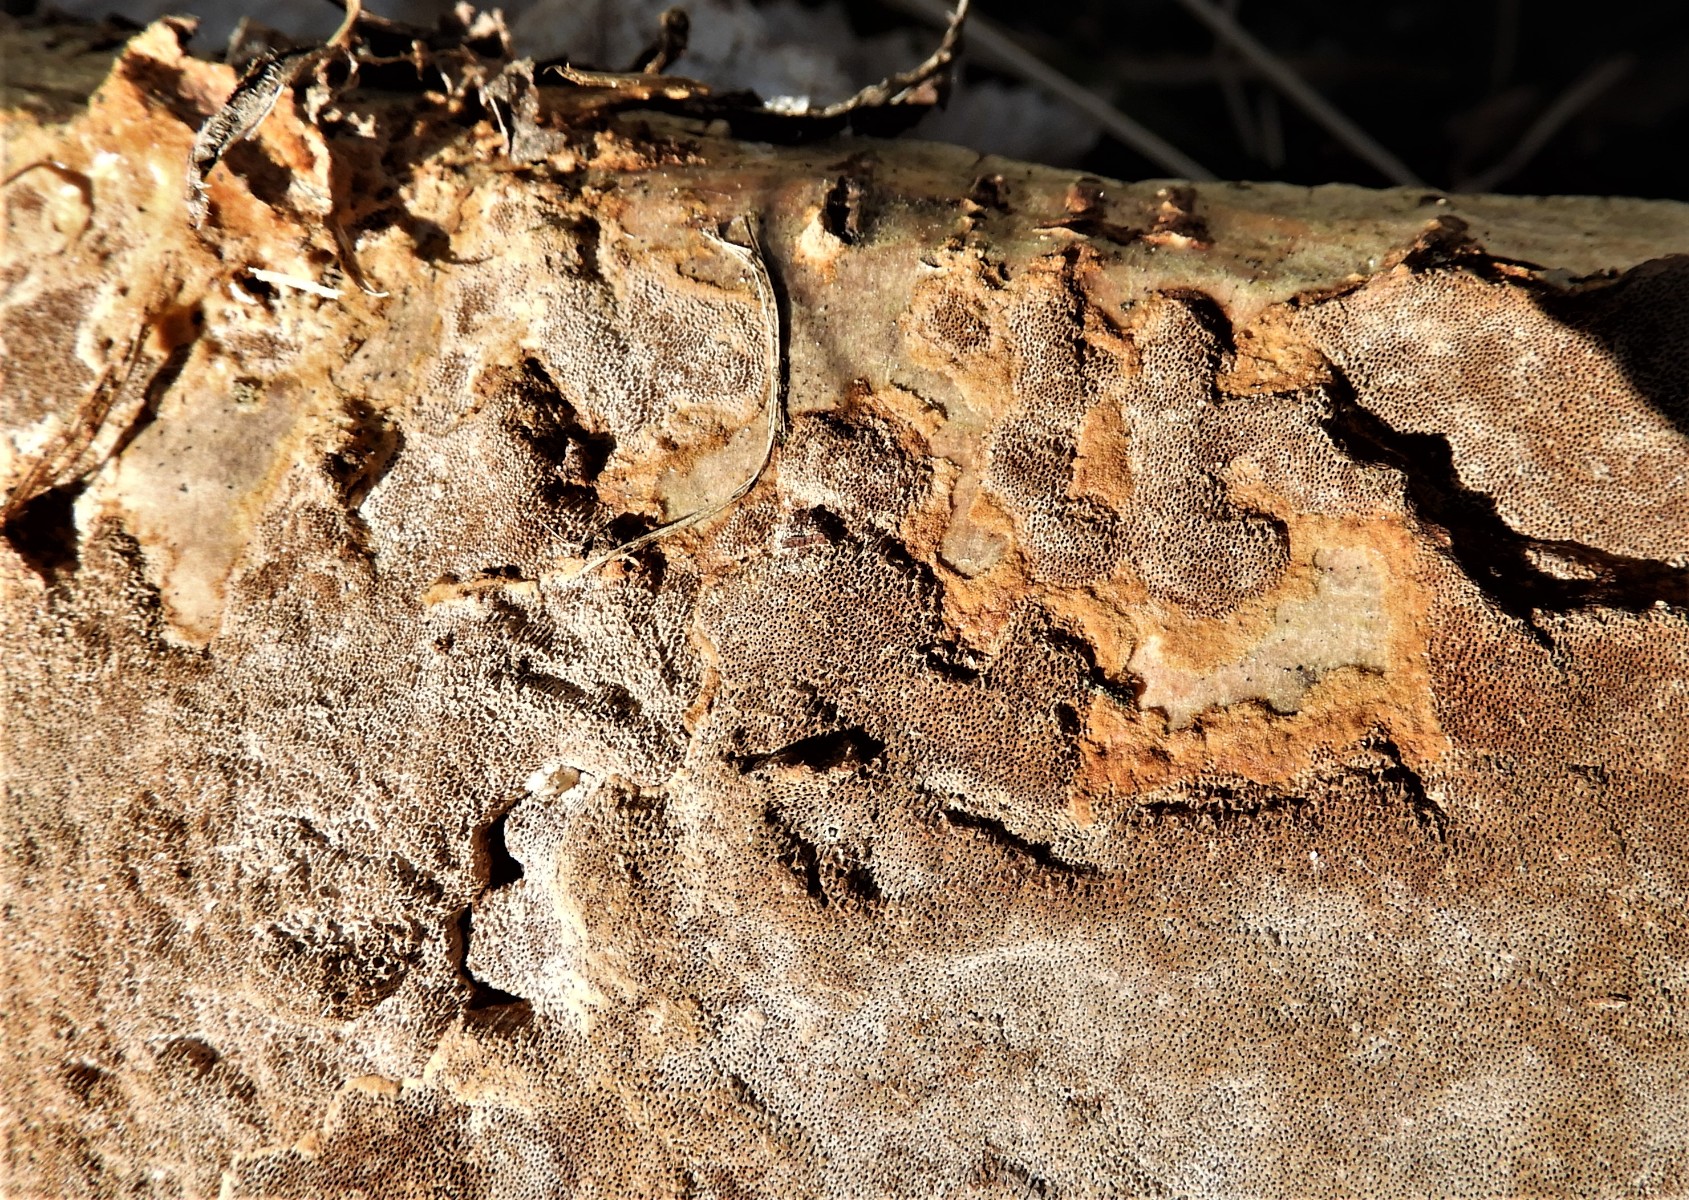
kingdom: Fungi
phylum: Basidiomycota
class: Agaricomycetes
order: Hymenochaetales
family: Hymenochaetaceae
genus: Fuscoporia
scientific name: Fuscoporia ferrea
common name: skorpe-ildporesvamp
